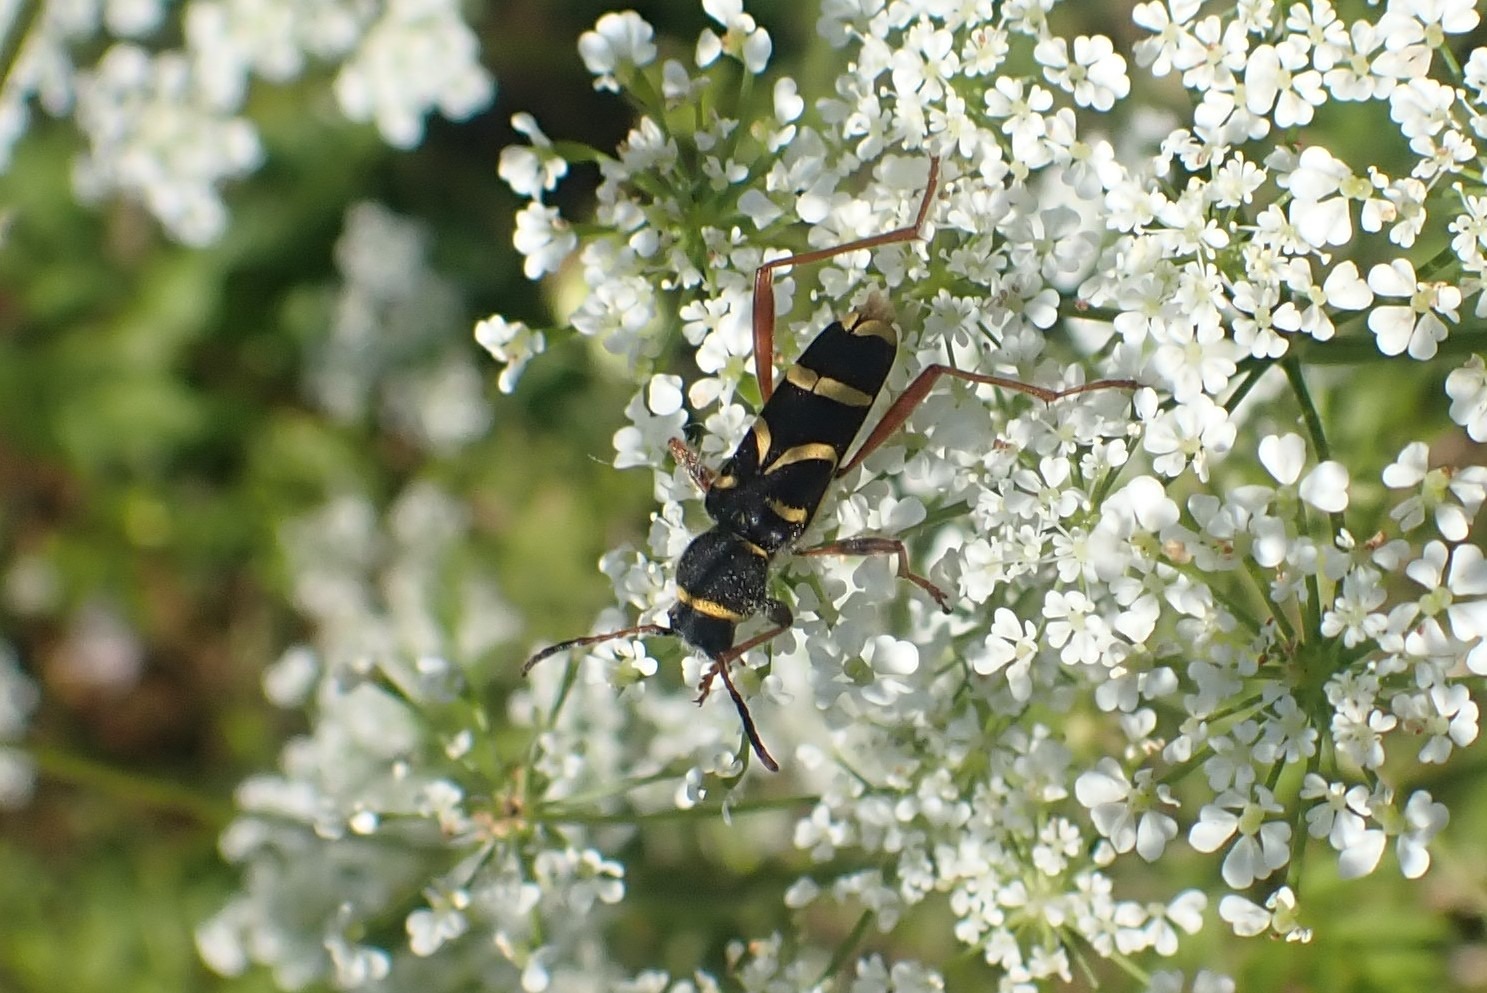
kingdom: Animalia
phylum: Arthropoda
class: Insecta
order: Coleoptera
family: Cerambycidae
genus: Clytus
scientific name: Clytus arietis
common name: Lille hvepsebuk
